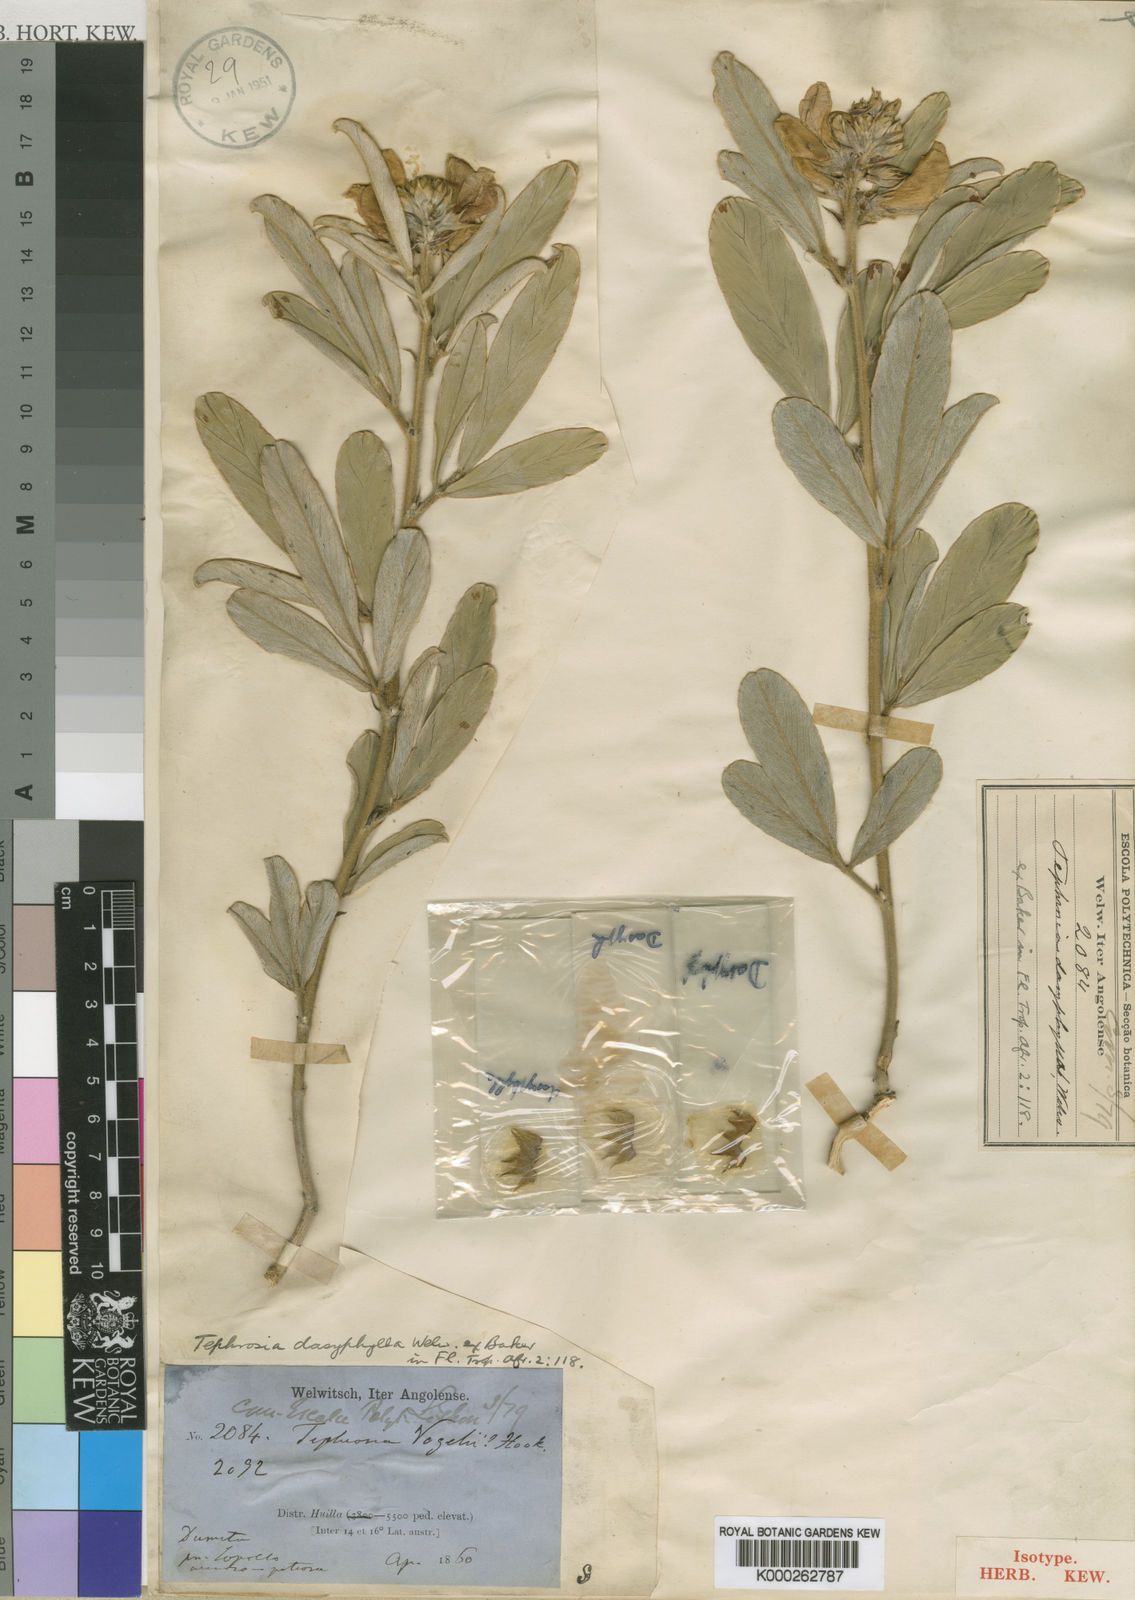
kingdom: Plantae
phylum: Tracheophyta
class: Magnoliopsida
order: Fabales
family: Fabaceae
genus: Tephrosia
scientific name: Tephrosia dasyphylla
